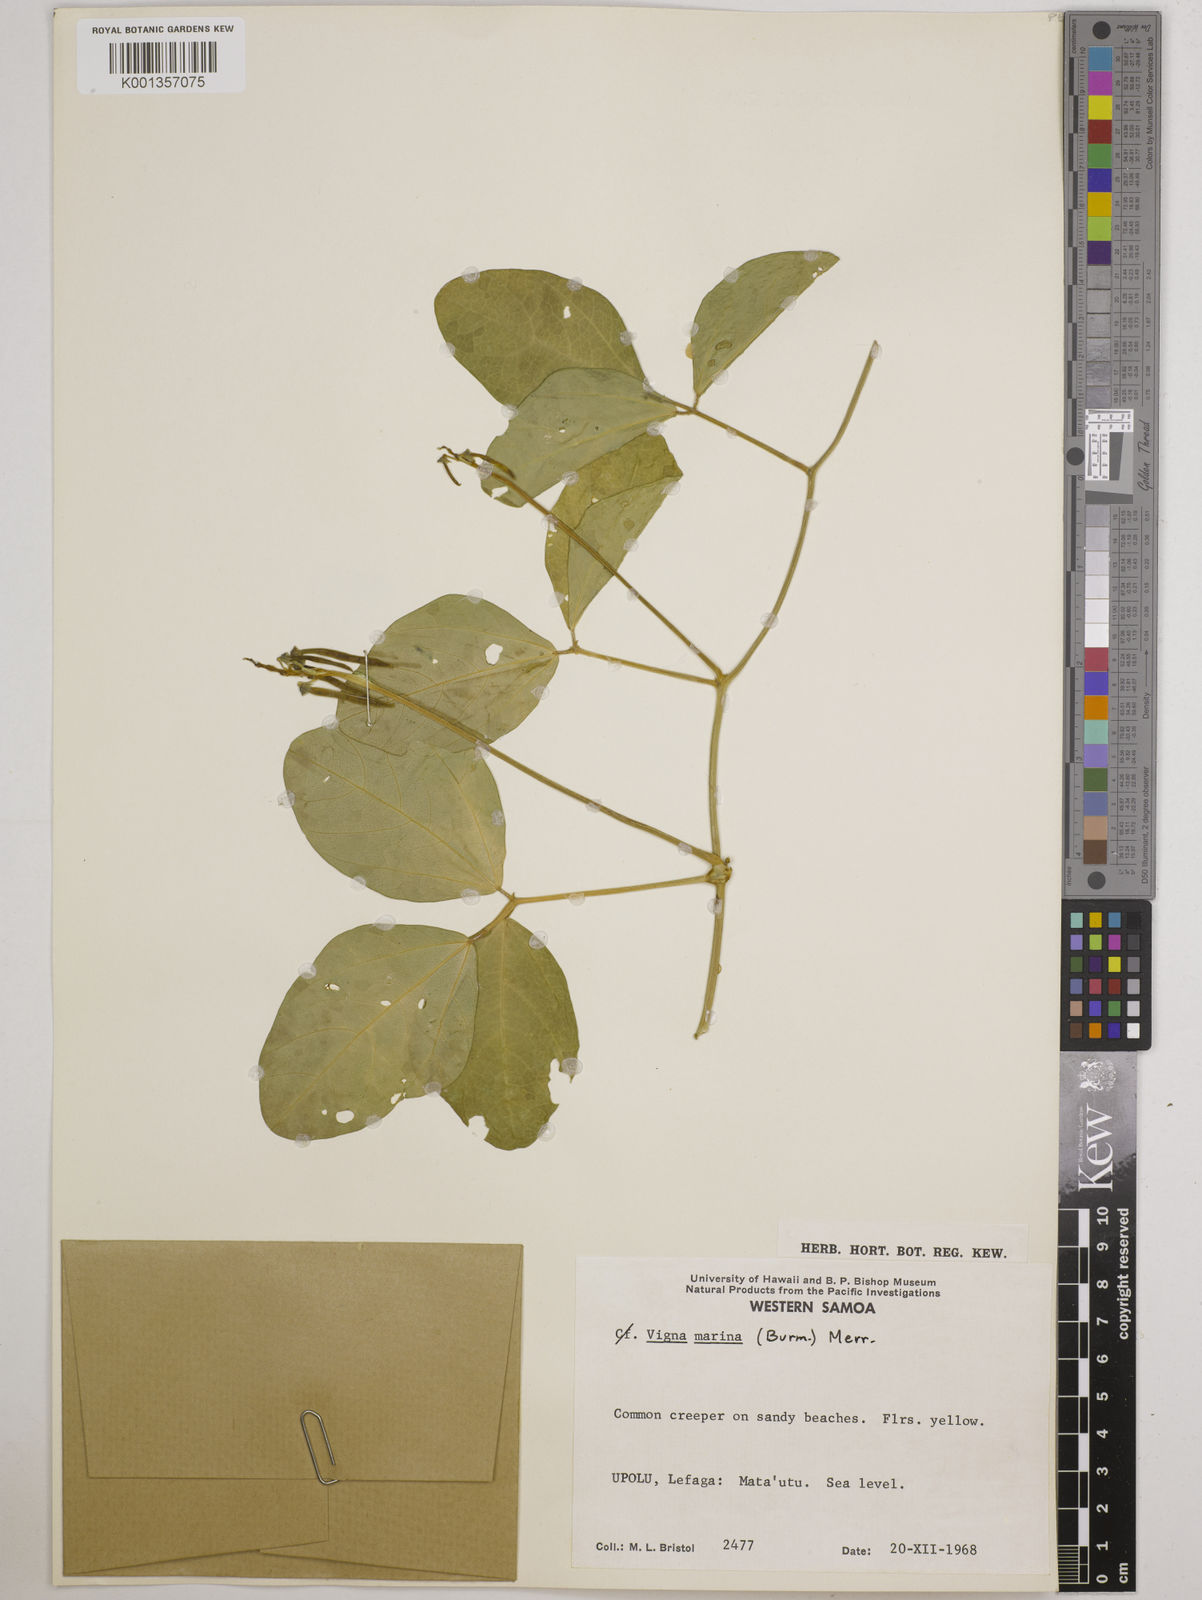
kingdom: Plantae
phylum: Tracheophyta
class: Magnoliopsida
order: Fabales
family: Fabaceae
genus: Vigna
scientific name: Vigna marina
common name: Dune-bean
